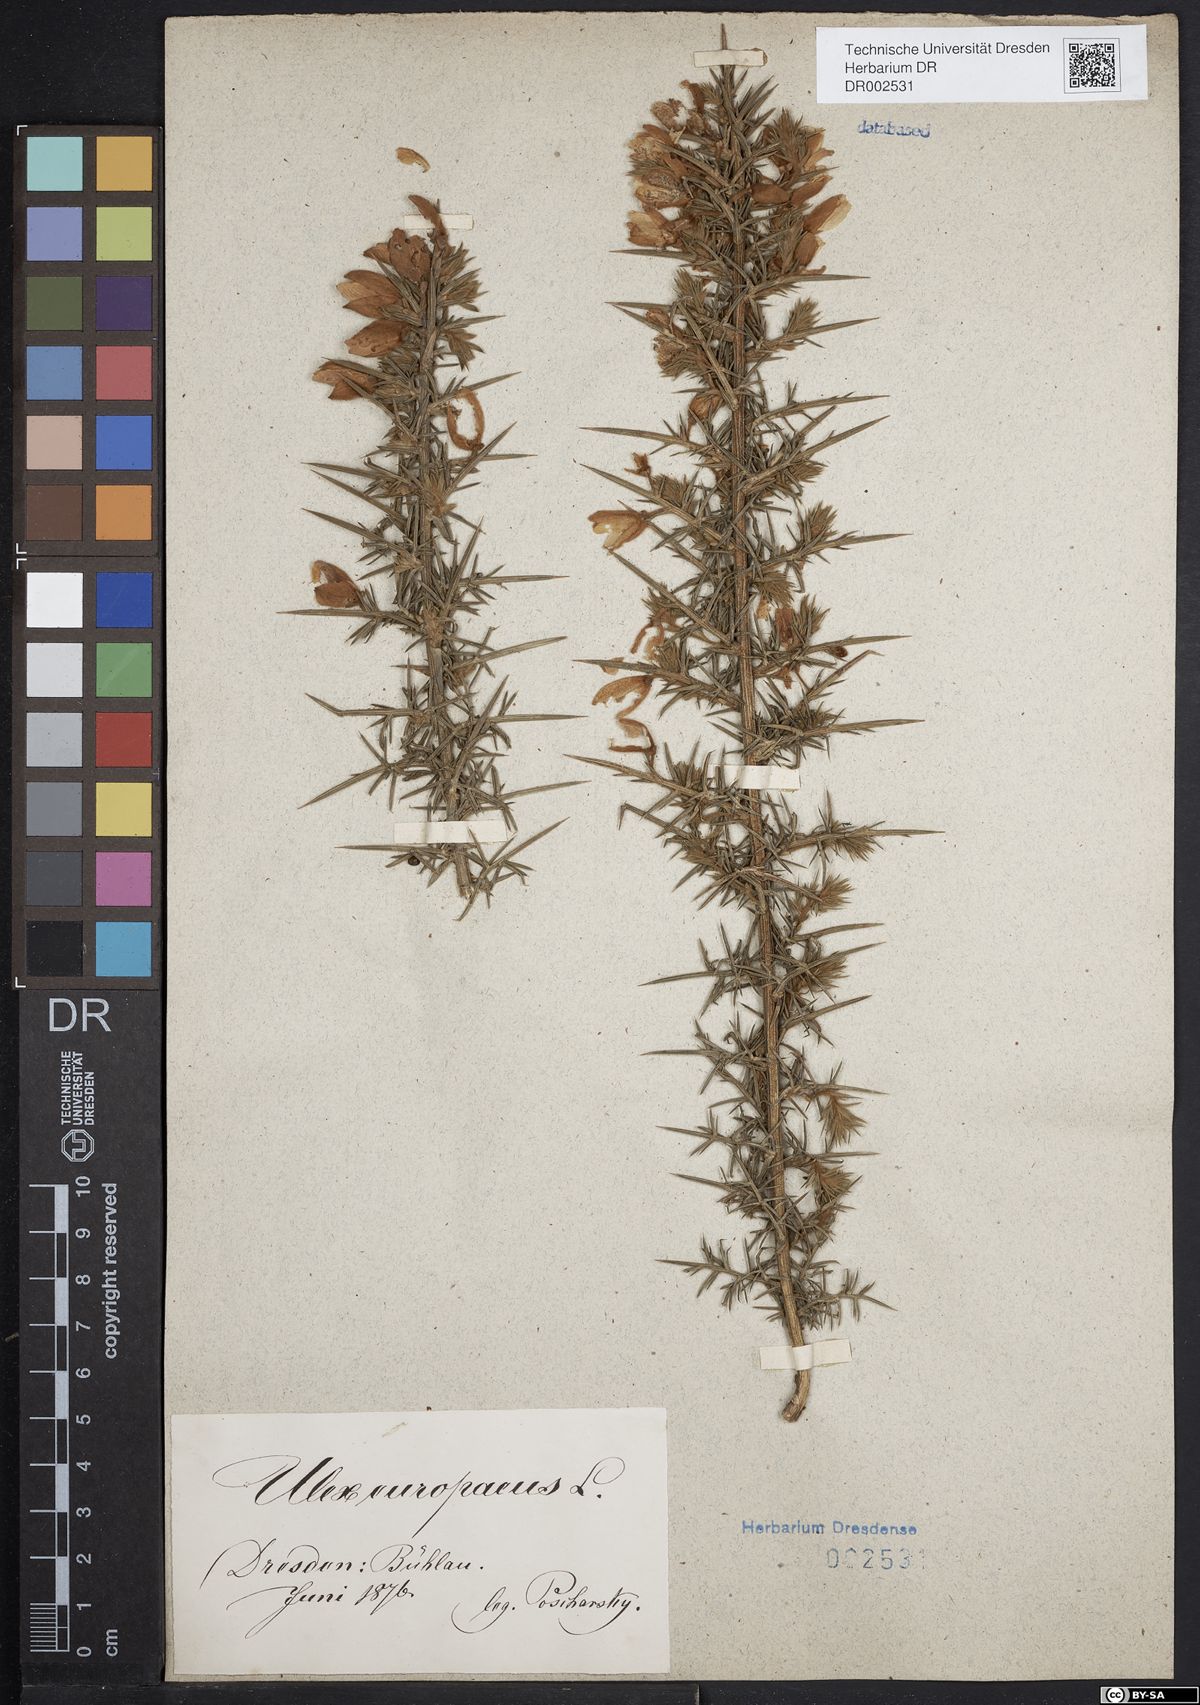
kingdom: Plantae
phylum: Tracheophyta
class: Magnoliopsida
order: Fabales
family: Fabaceae
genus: Ulex
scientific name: Ulex europaeus
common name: Common gorse
